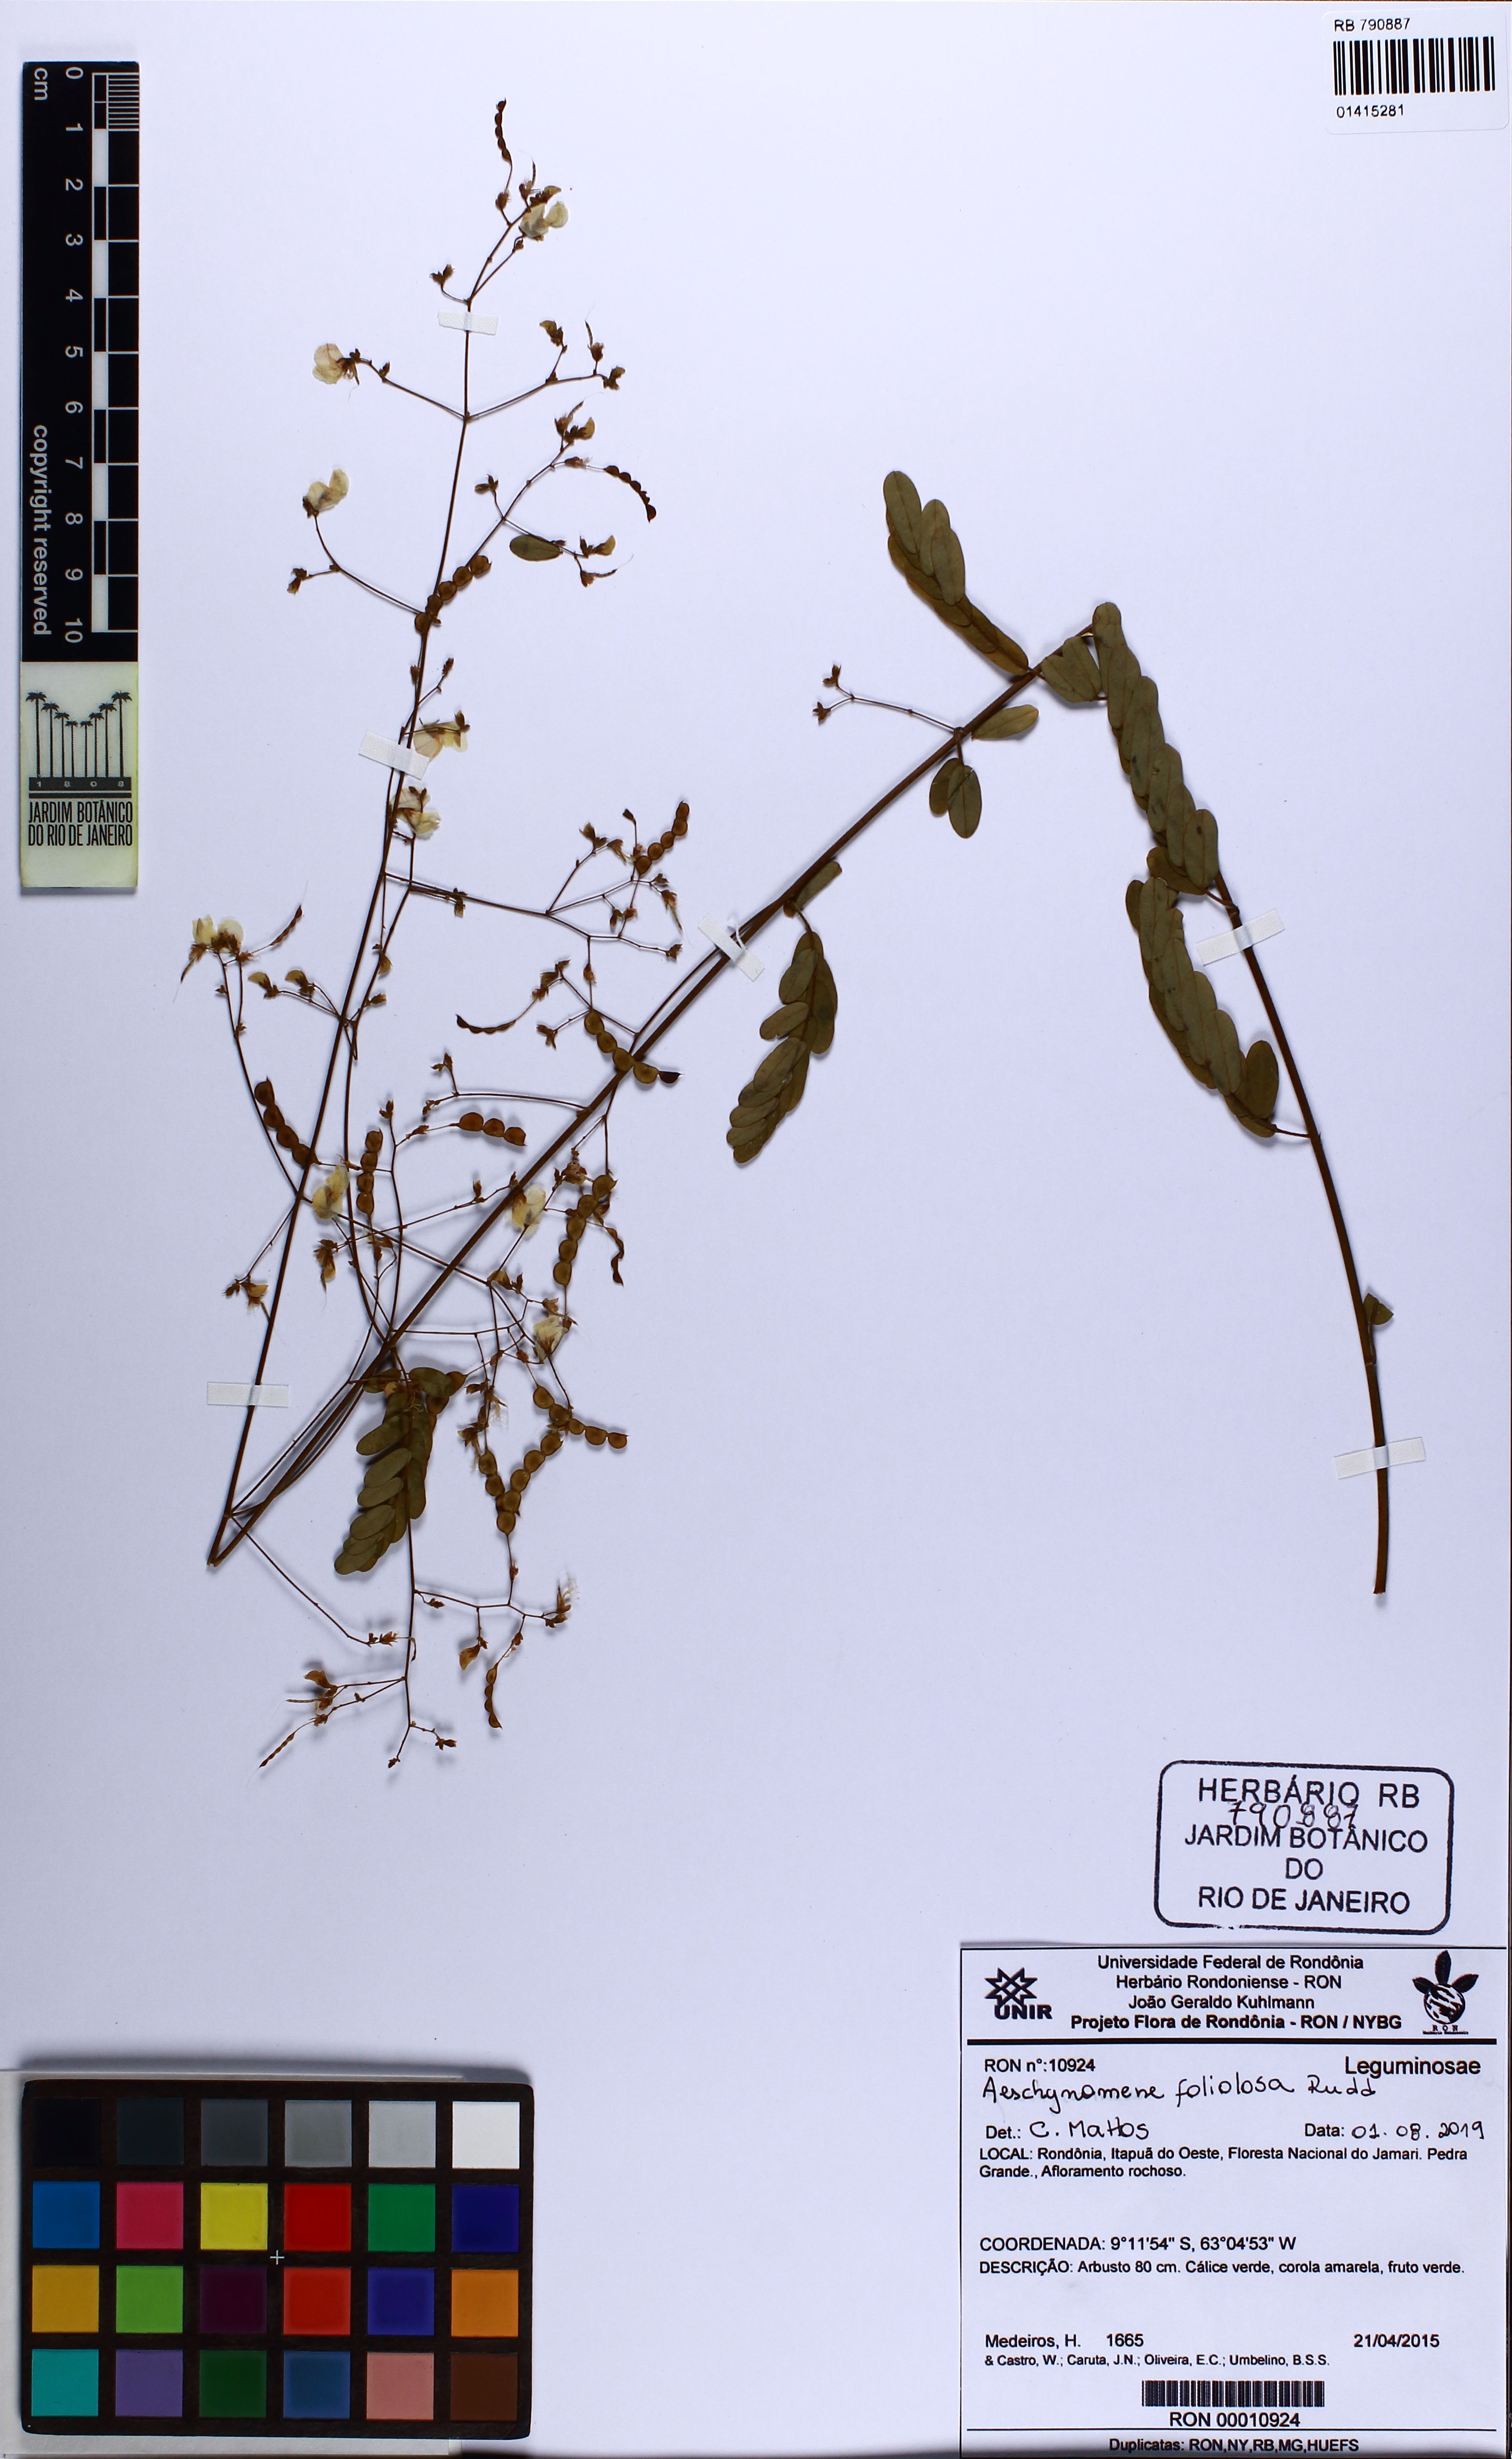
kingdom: Plantae
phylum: Tracheophyta
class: Magnoliopsida
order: Fabales
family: Fabaceae
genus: Ctenodon
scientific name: Ctenodon foliolosus
